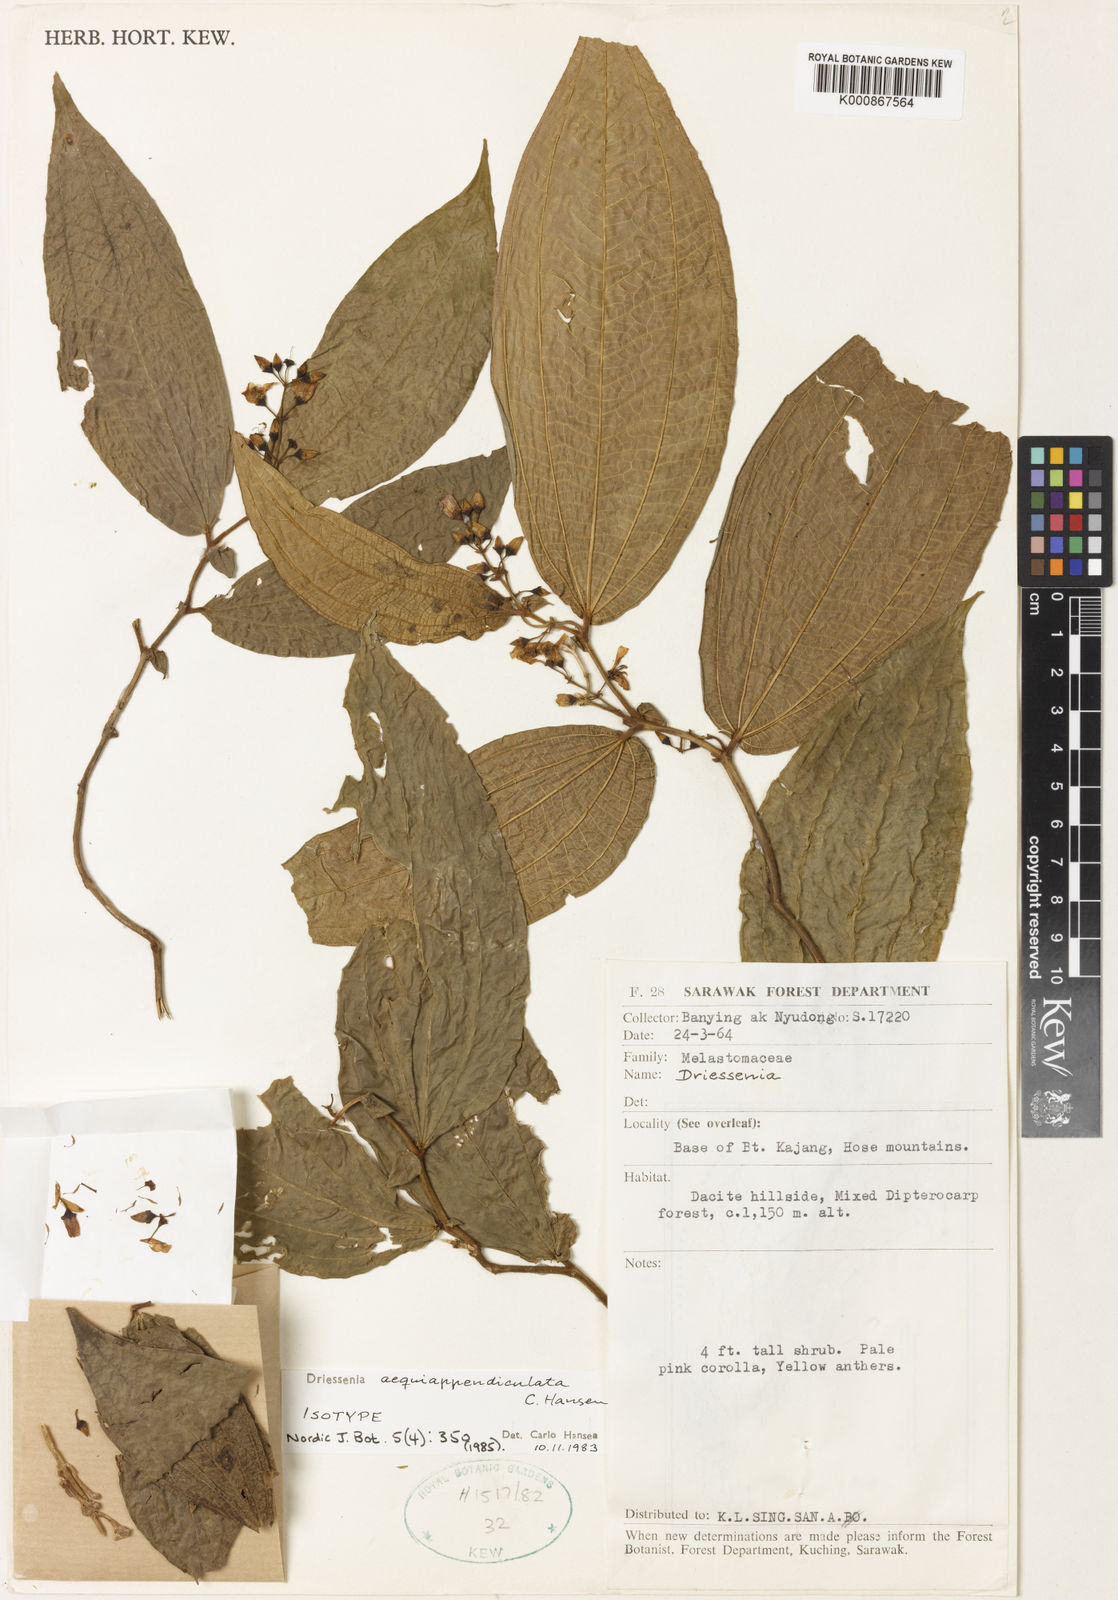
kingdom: Plantae
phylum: Tracheophyta
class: Magnoliopsida
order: Myrtales
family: Melastomataceae
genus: Driessenia
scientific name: Driessenia aequiappendiculata
